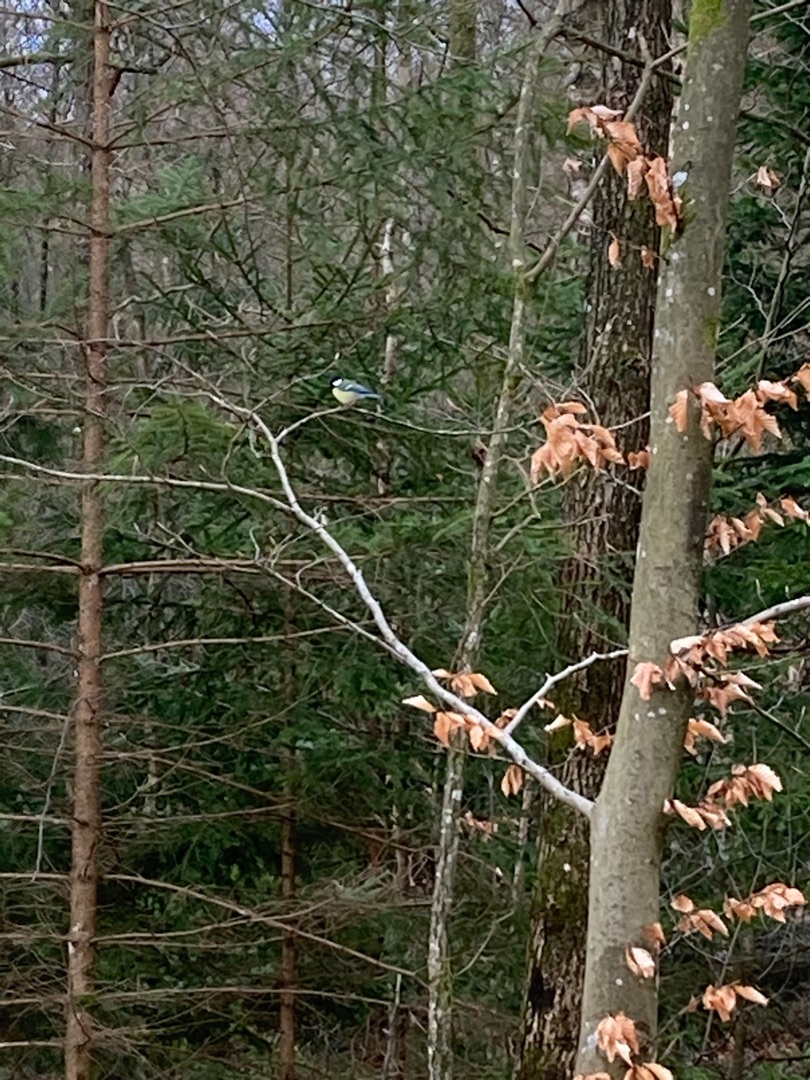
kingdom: Animalia
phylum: Chordata
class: Aves
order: Passeriformes
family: Paridae
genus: Parus
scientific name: Parus major
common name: Musvit
